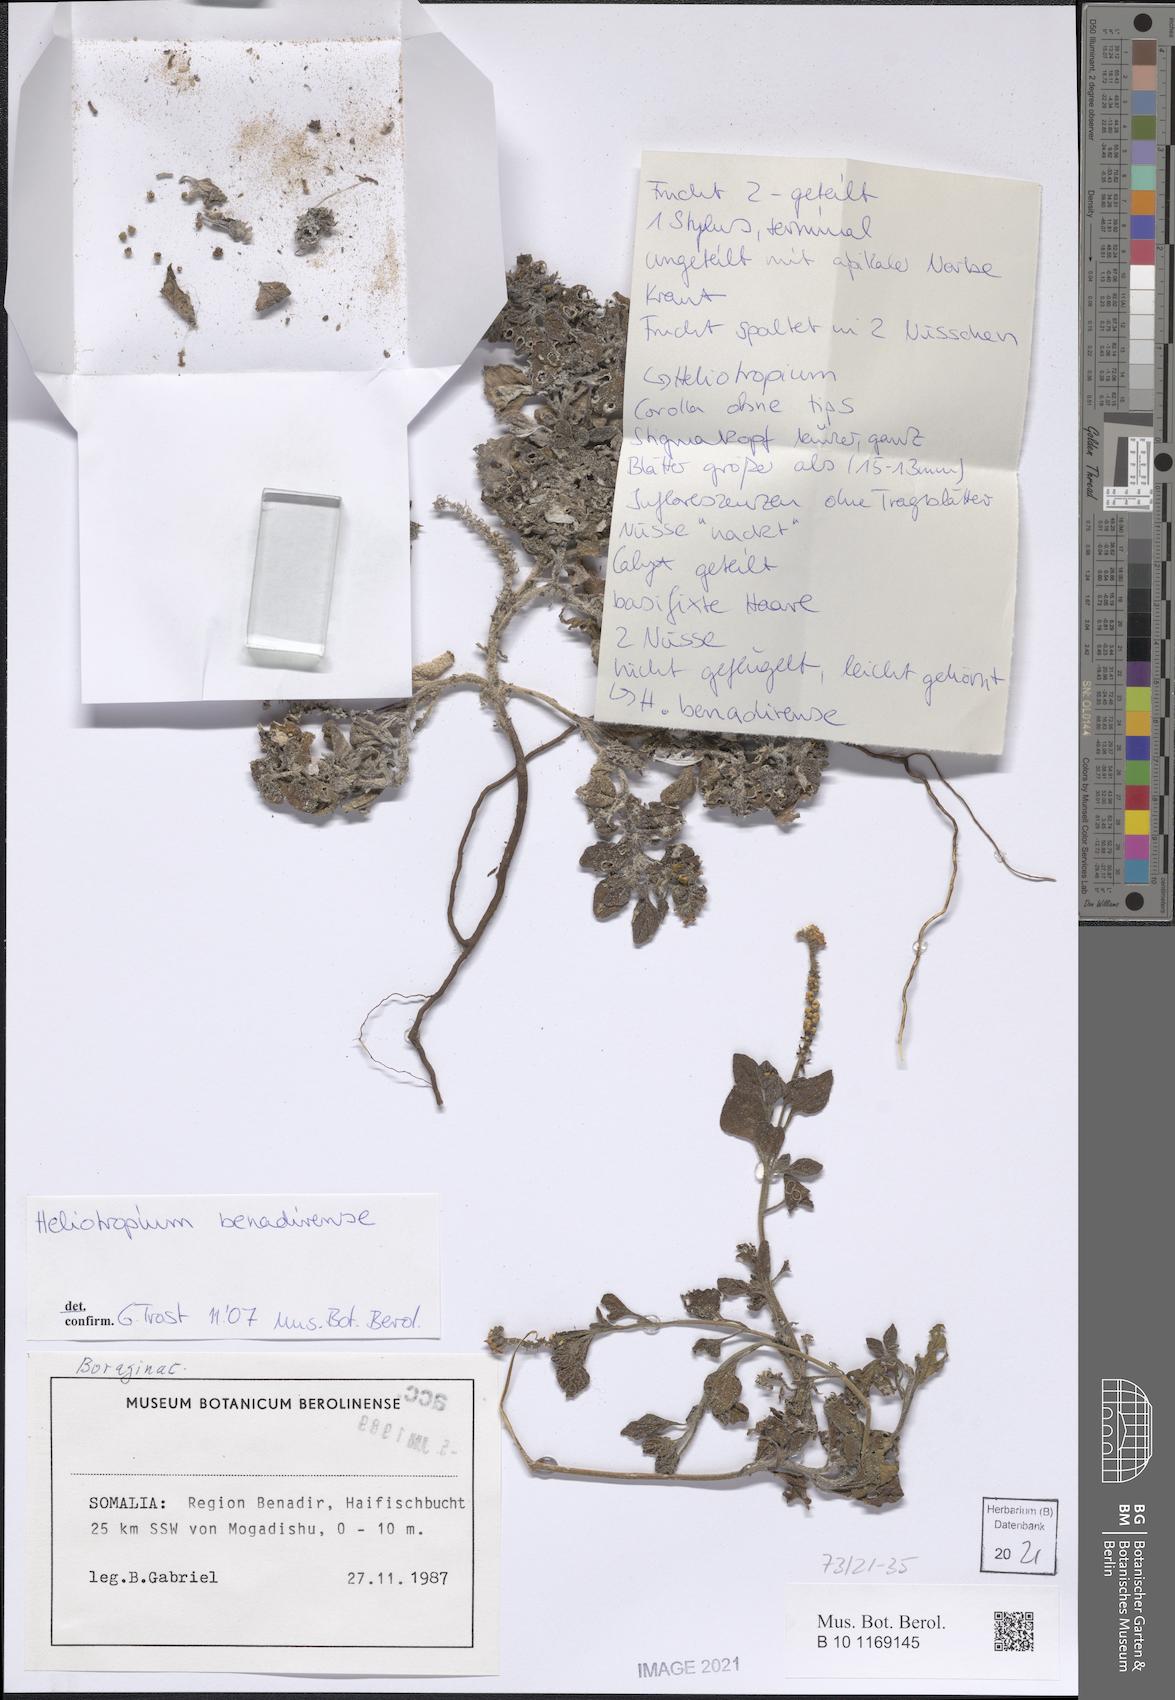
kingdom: Plantae
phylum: Tracheophyta
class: Magnoliopsida
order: Boraginales
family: Heliotropiaceae
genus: Heliotropium
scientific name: Heliotropium benadirense
